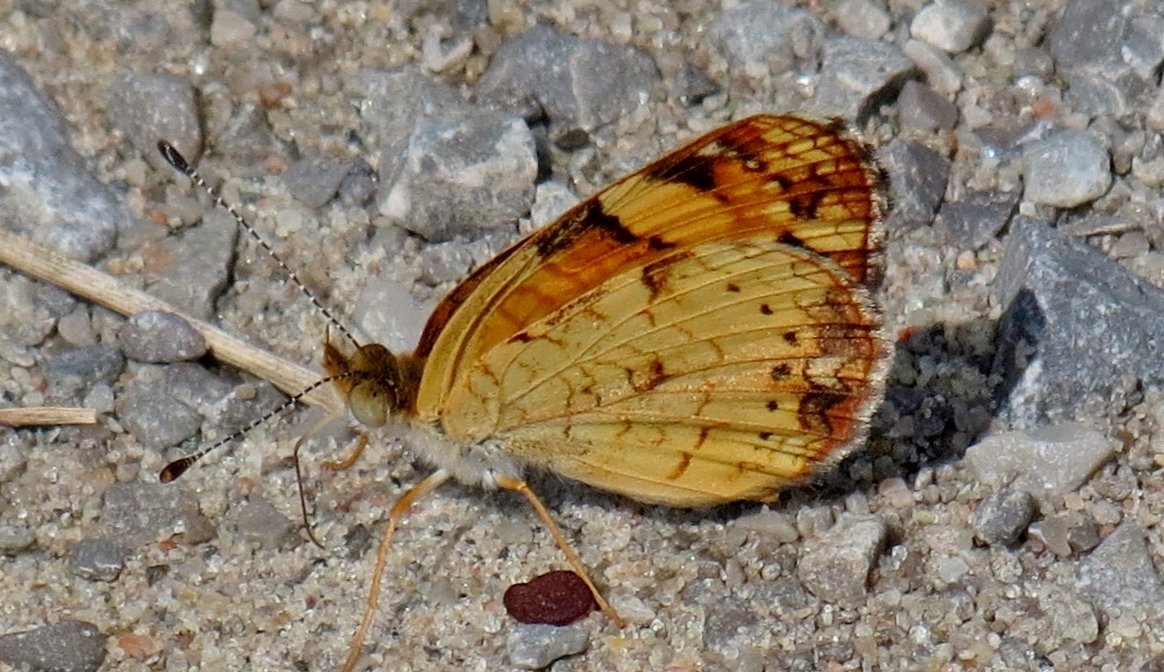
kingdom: Animalia
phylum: Arthropoda
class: Insecta
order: Lepidoptera
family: Nymphalidae
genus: Phyciodes
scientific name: Phyciodes tharos
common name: Pearl Crescent
